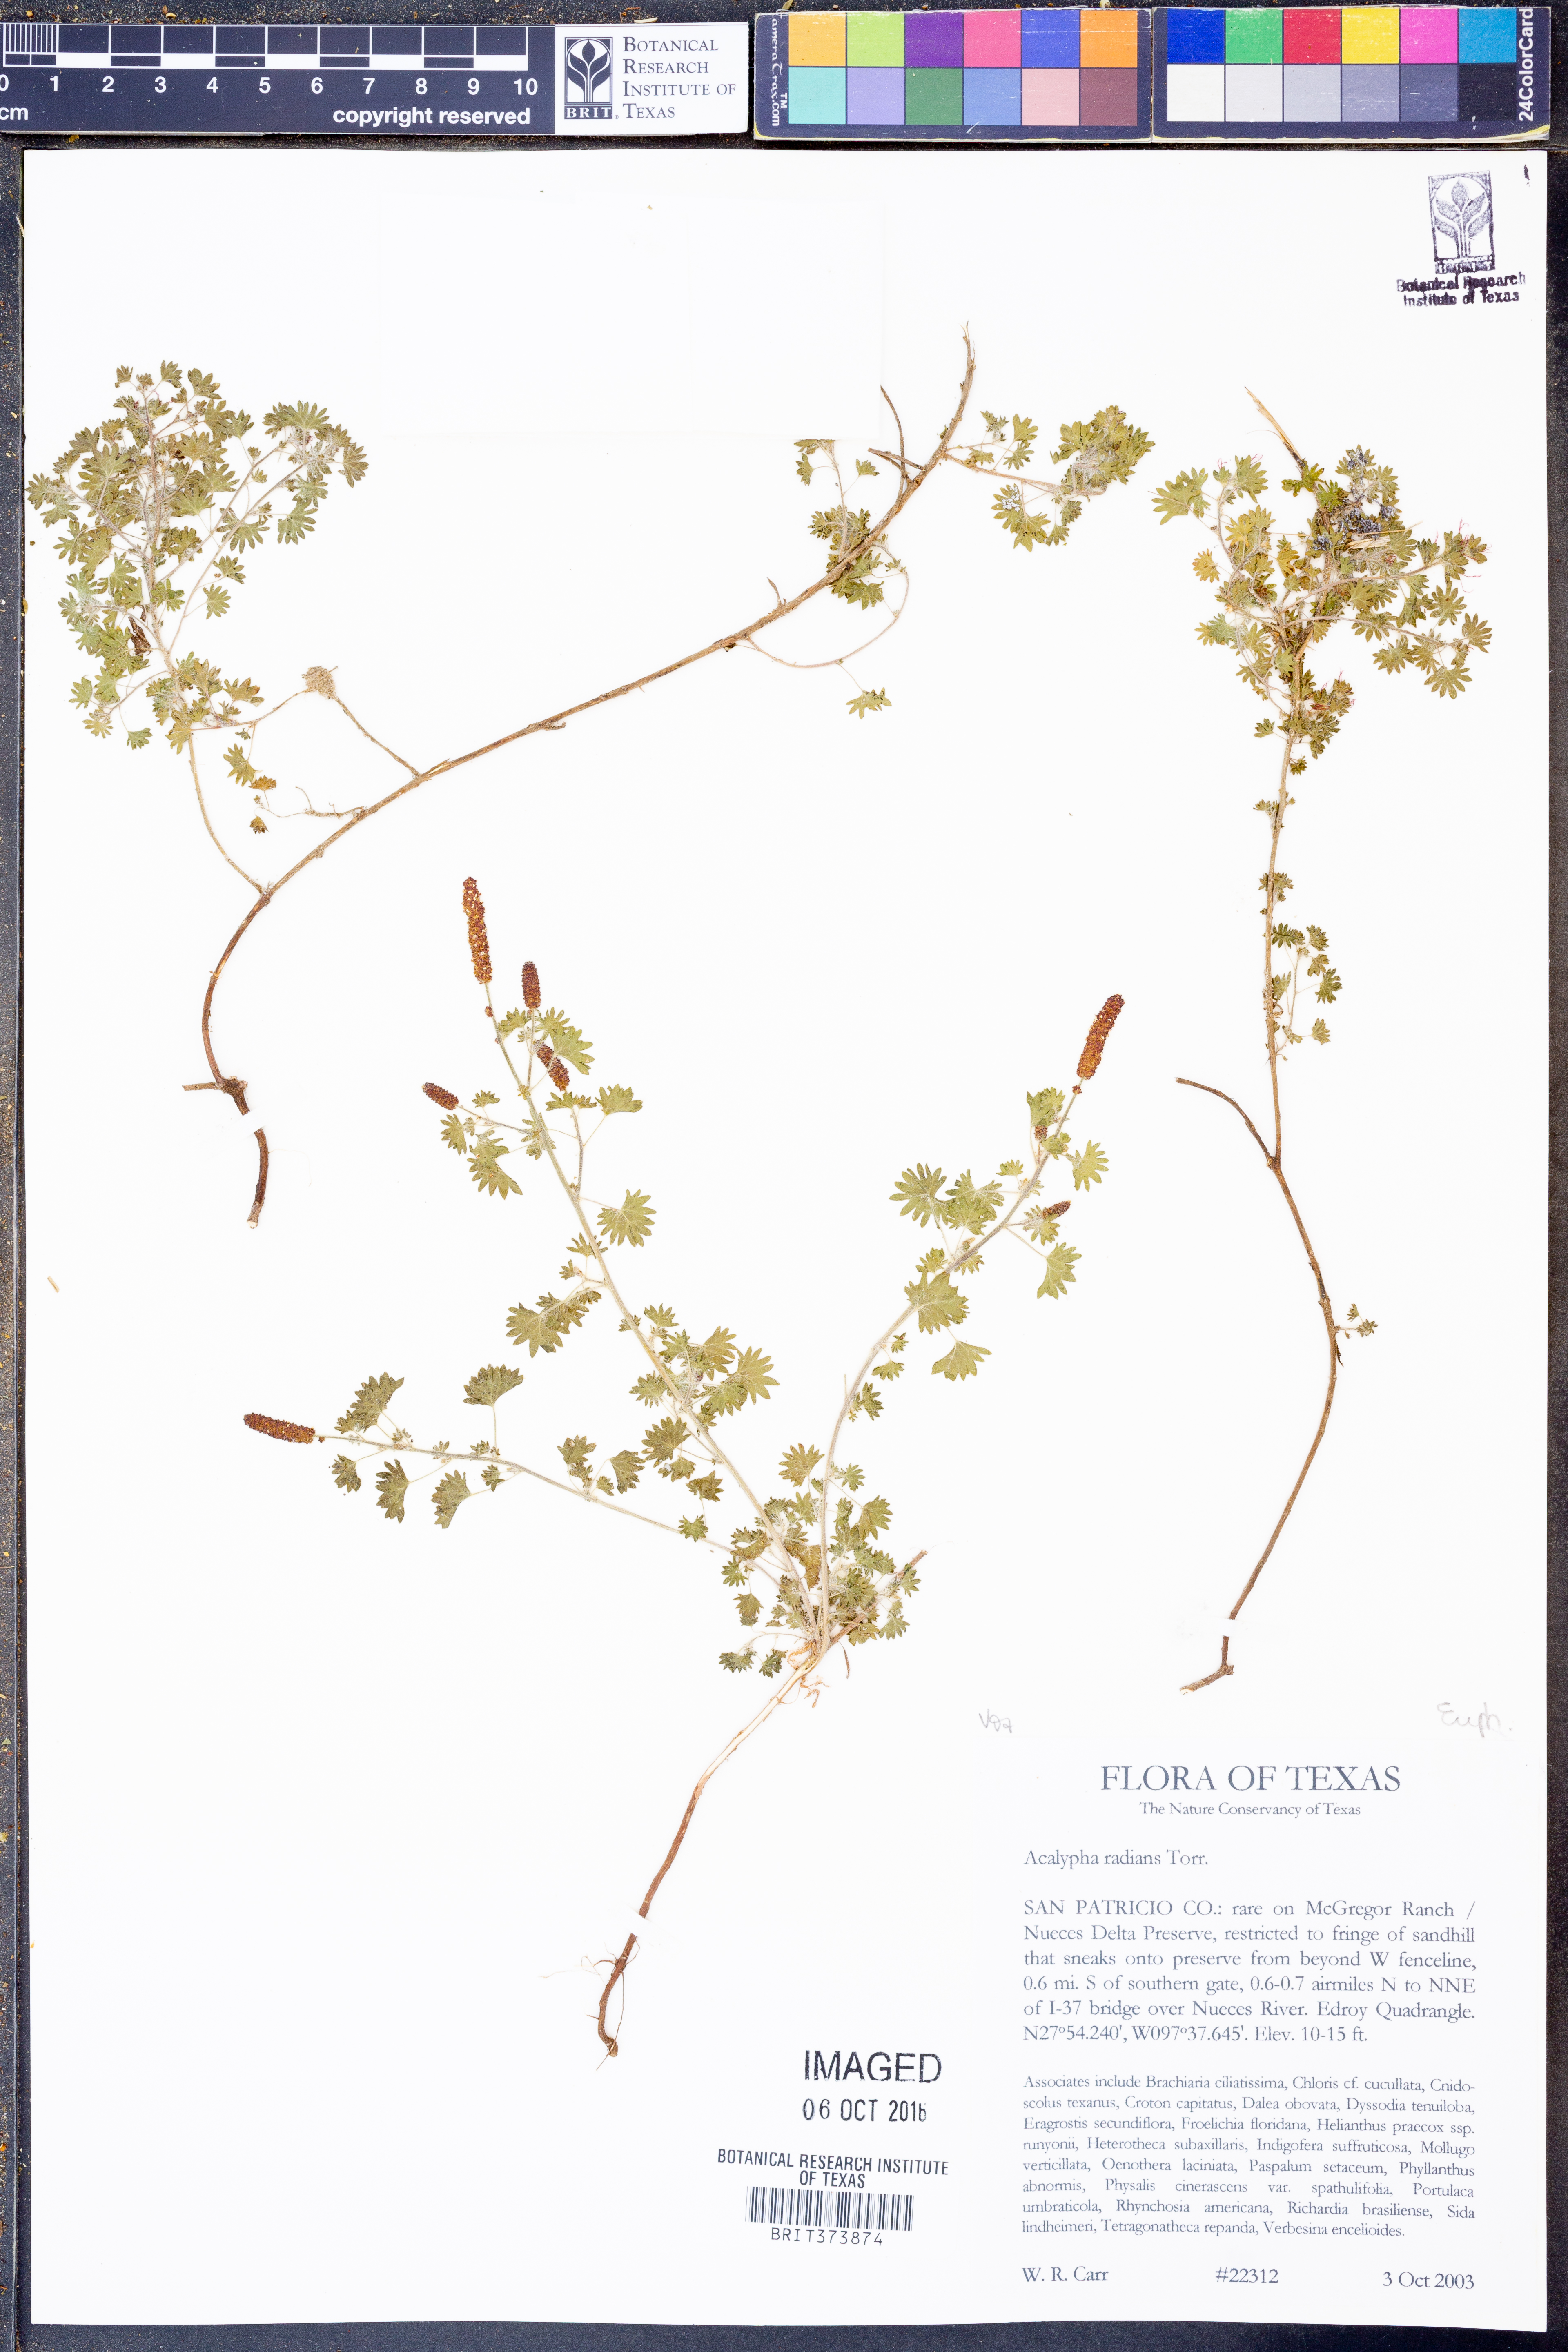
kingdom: Plantae
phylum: Tracheophyta
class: Magnoliopsida
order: Malpighiales
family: Euphorbiaceae
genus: Acalypha
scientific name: Acalypha radians
